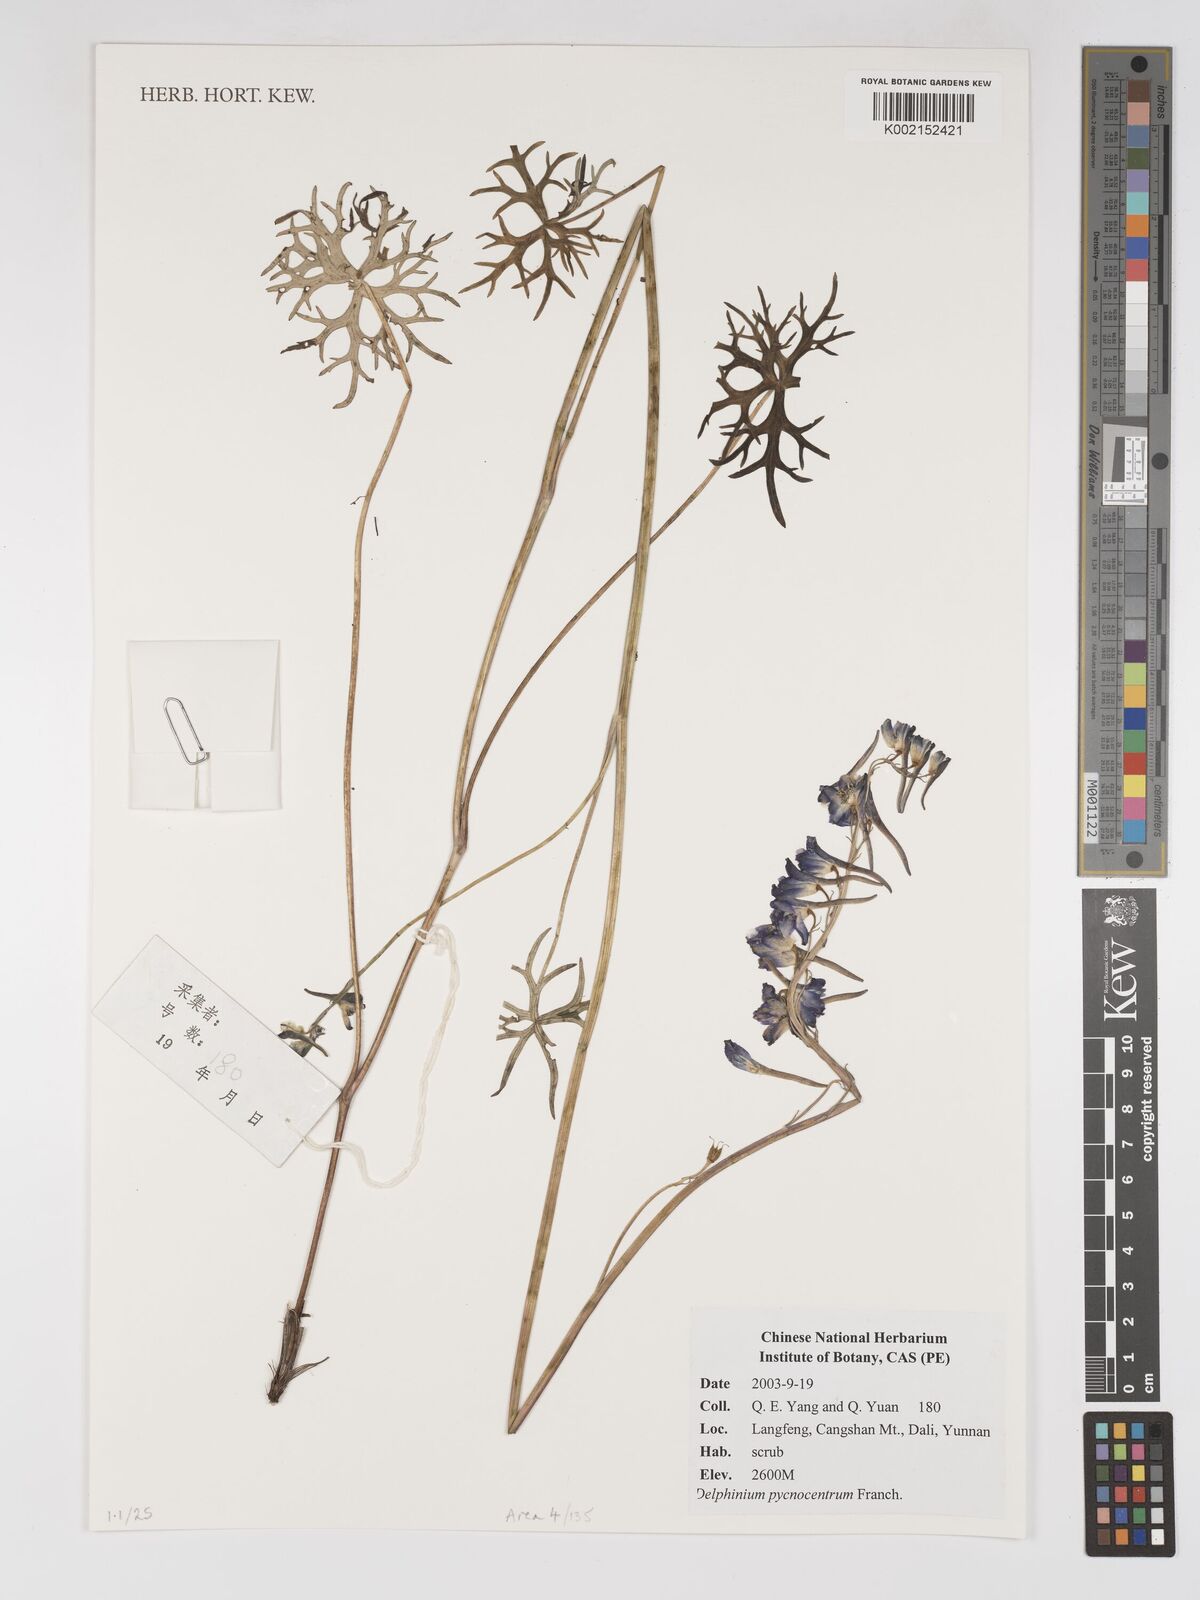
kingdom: Plantae
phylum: Tracheophyta
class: Magnoliopsida
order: Ranunculales
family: Ranunculaceae
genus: Delphinium
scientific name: Delphinium pycnocentrum
